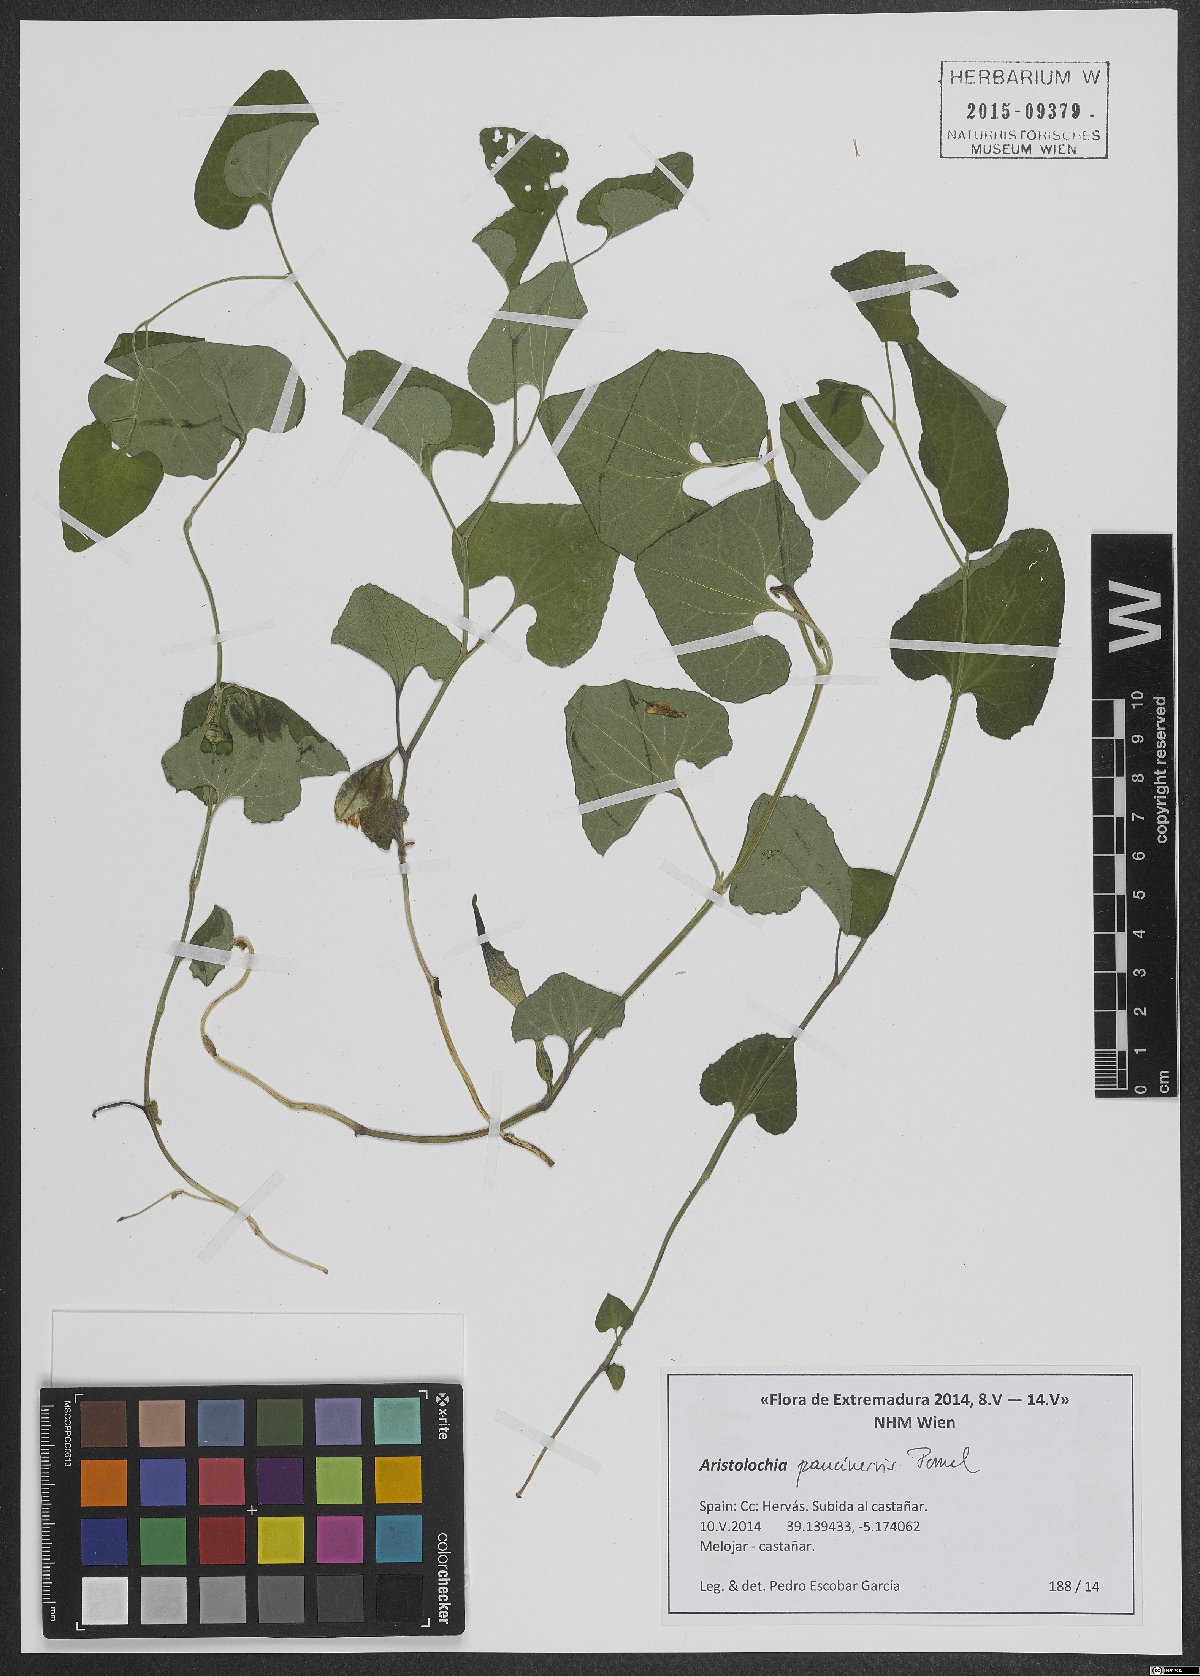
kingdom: Plantae
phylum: Tracheophyta
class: Magnoliopsida
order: Piperales
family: Aristolochiaceae
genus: Aristolochia
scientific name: Aristolochia paucinervis
